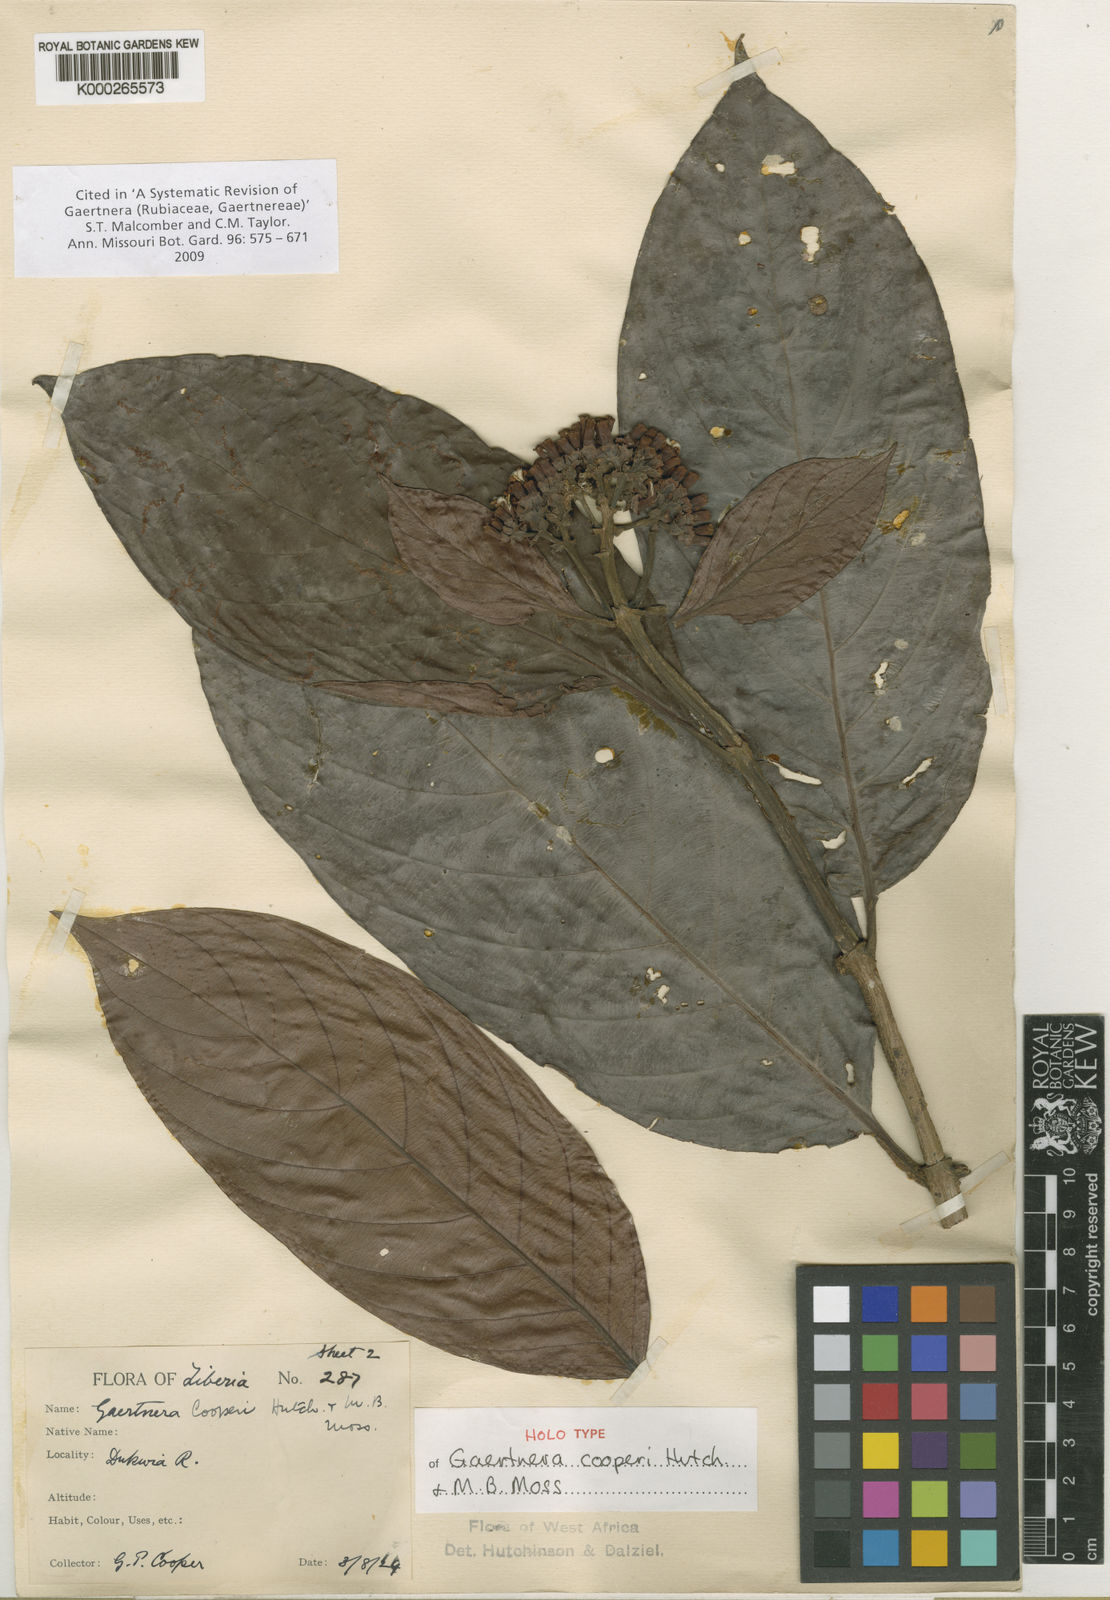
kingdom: Plantae
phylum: Tracheophyta
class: Magnoliopsida
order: Gentianales
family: Rubiaceae
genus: Gaertnera
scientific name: Gaertnera cooperi
